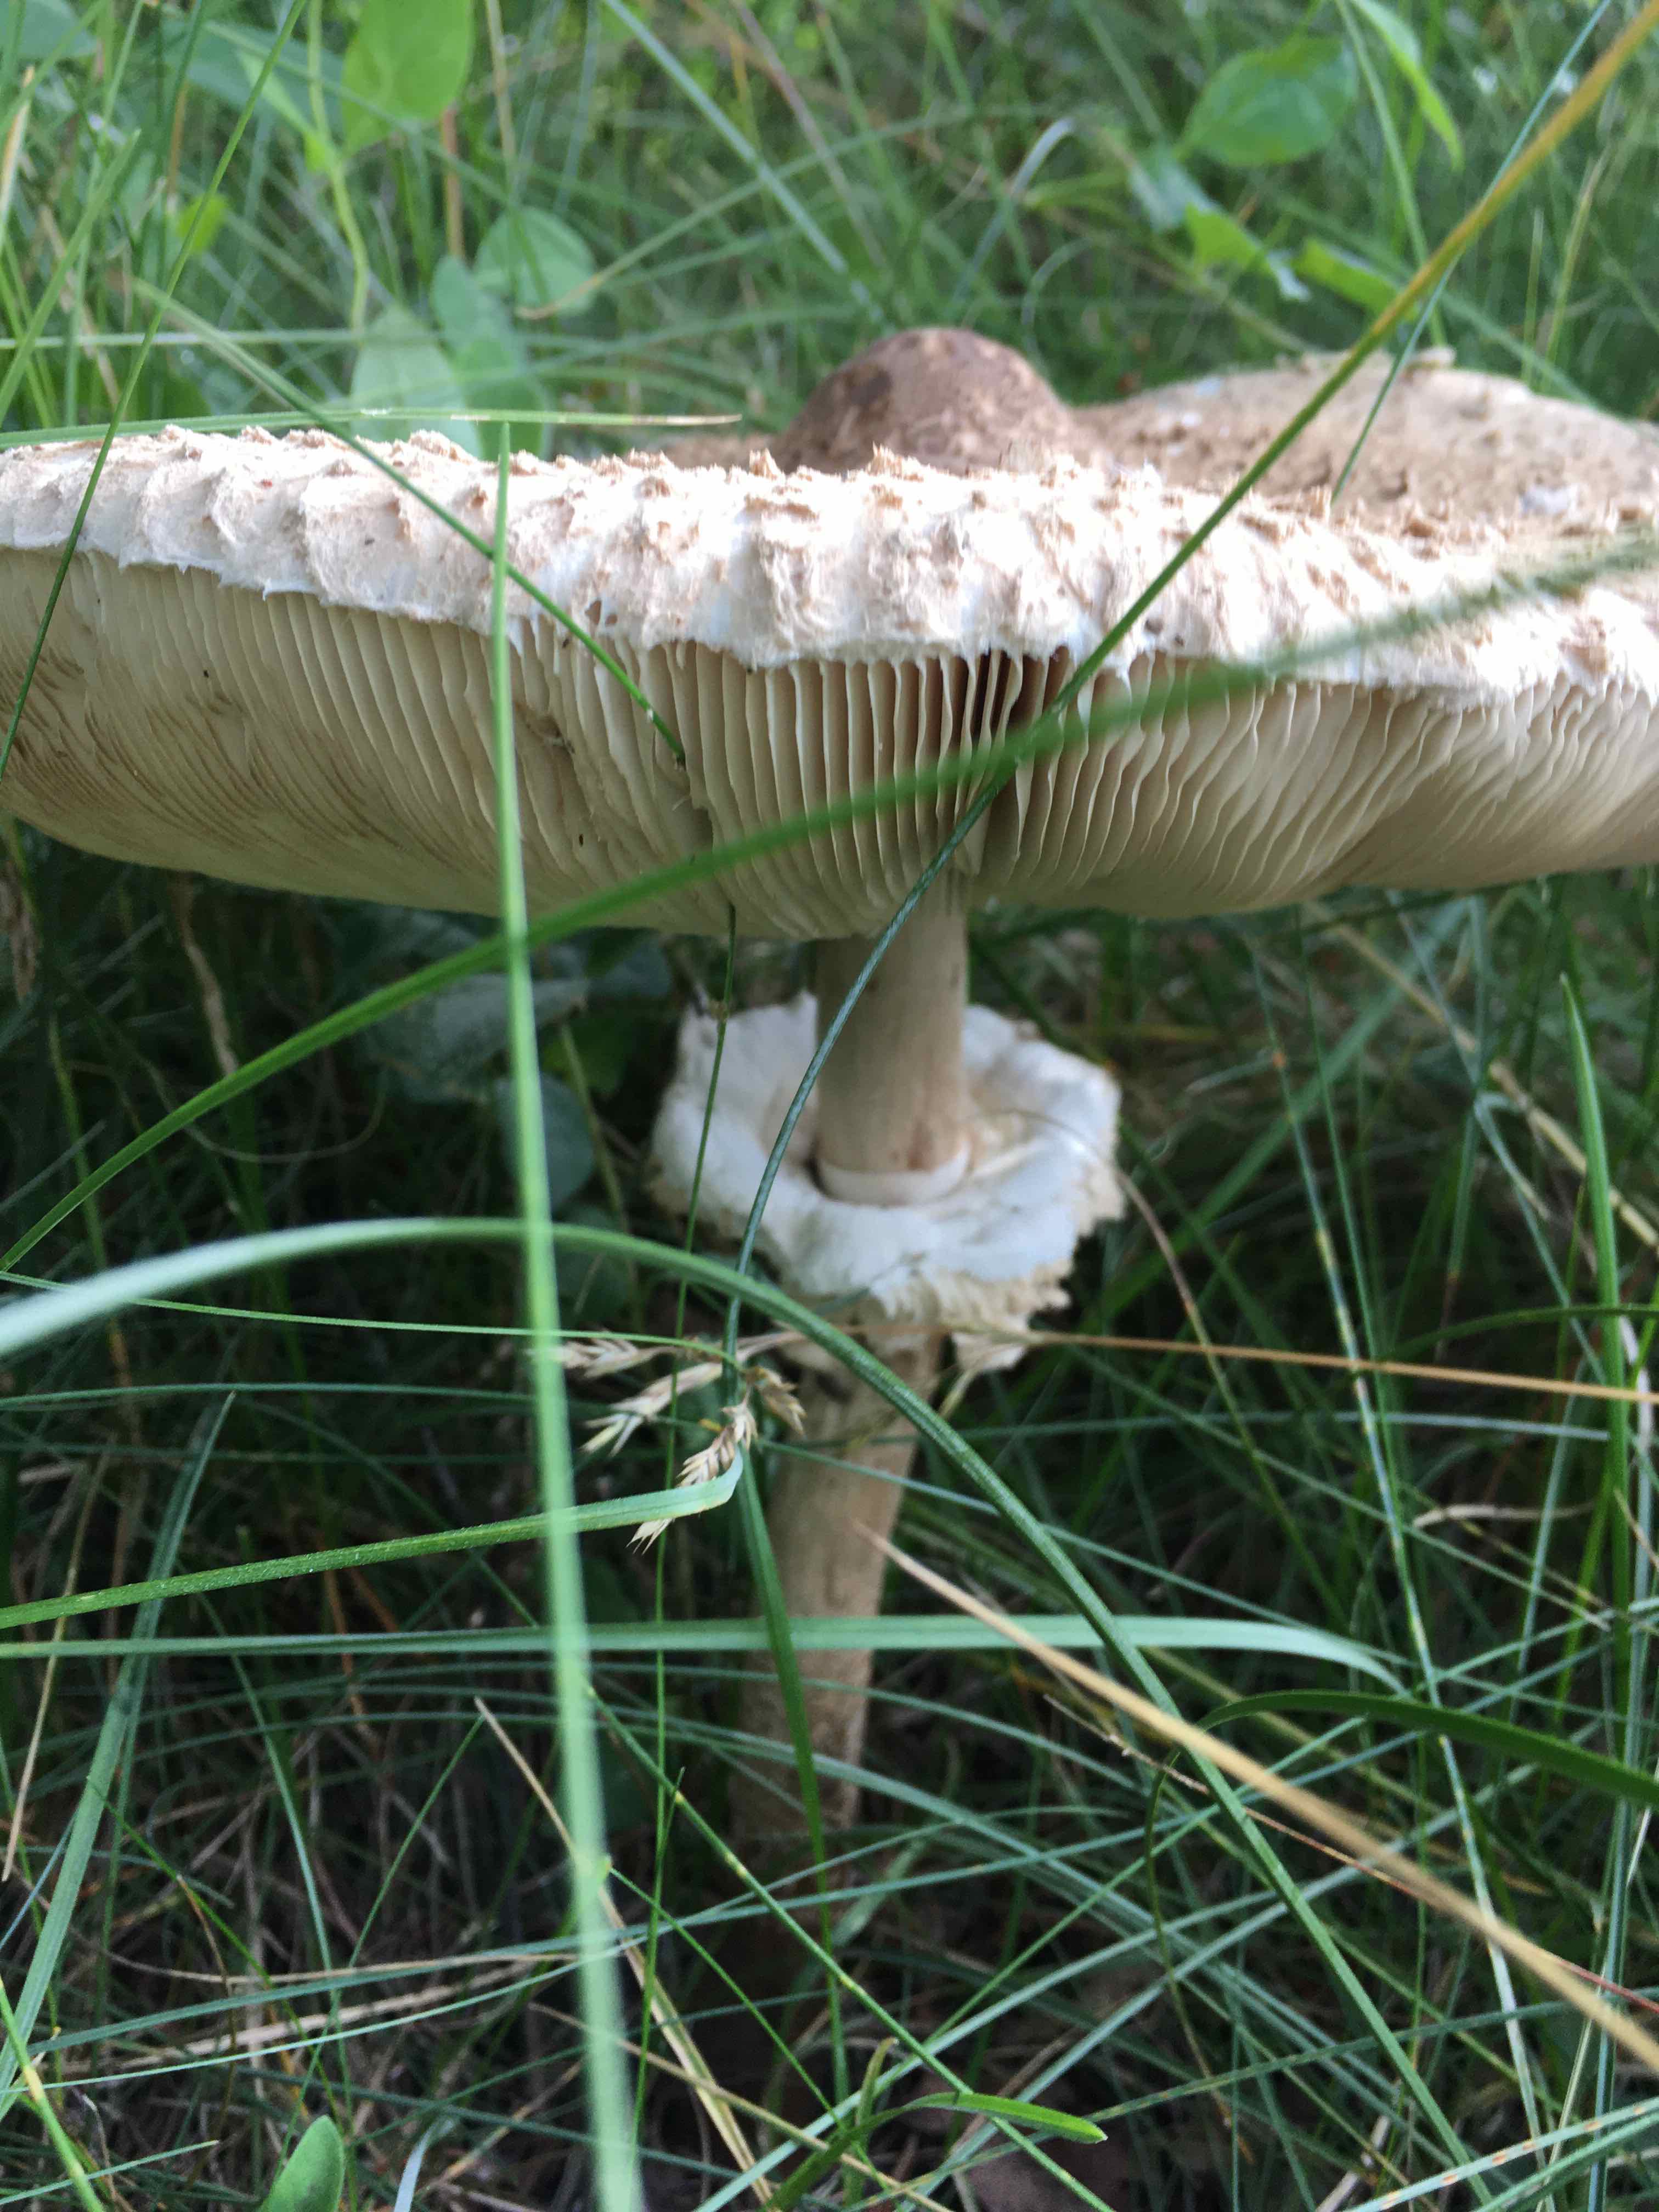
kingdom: Fungi
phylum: Basidiomycota
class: Agaricomycetes
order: Agaricales
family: Agaricaceae
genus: Macrolepiota
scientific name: Macrolepiota
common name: kæmpeparasolhat
